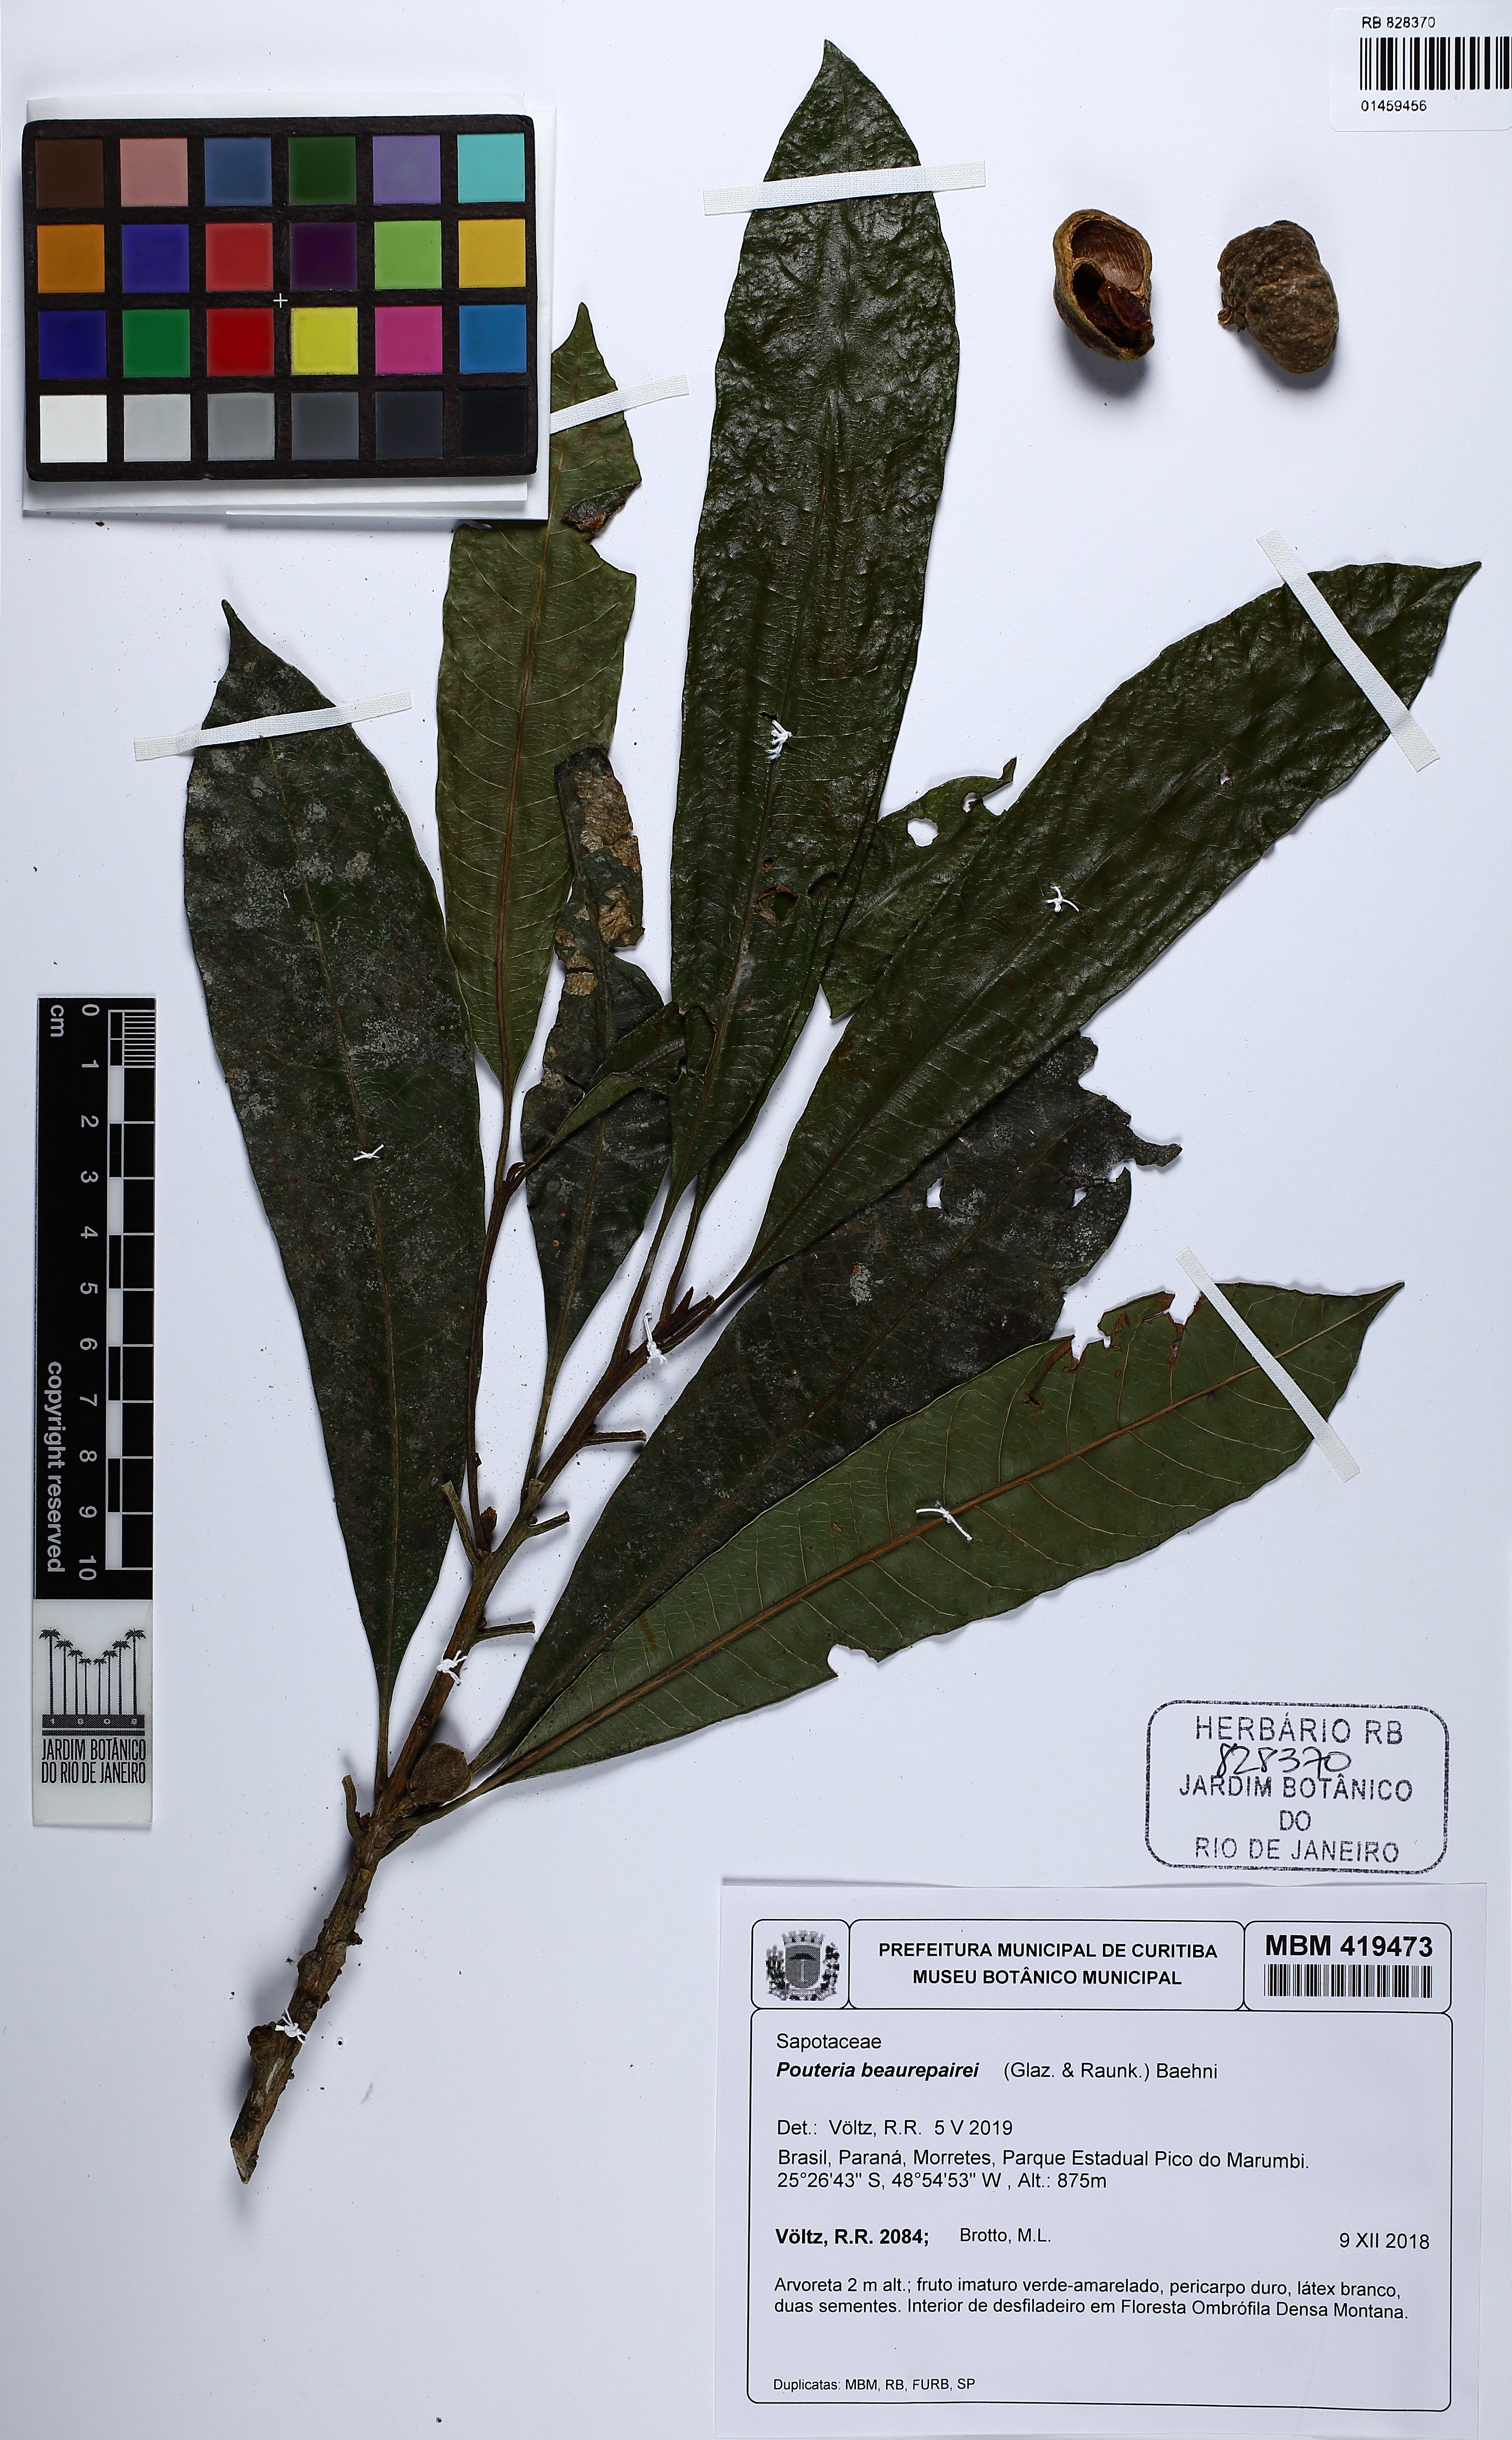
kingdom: Plantae
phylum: Tracheophyta
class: Magnoliopsida
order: Ericales
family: Sapotaceae
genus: Pouteria
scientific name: Pouteria beaurepairei
